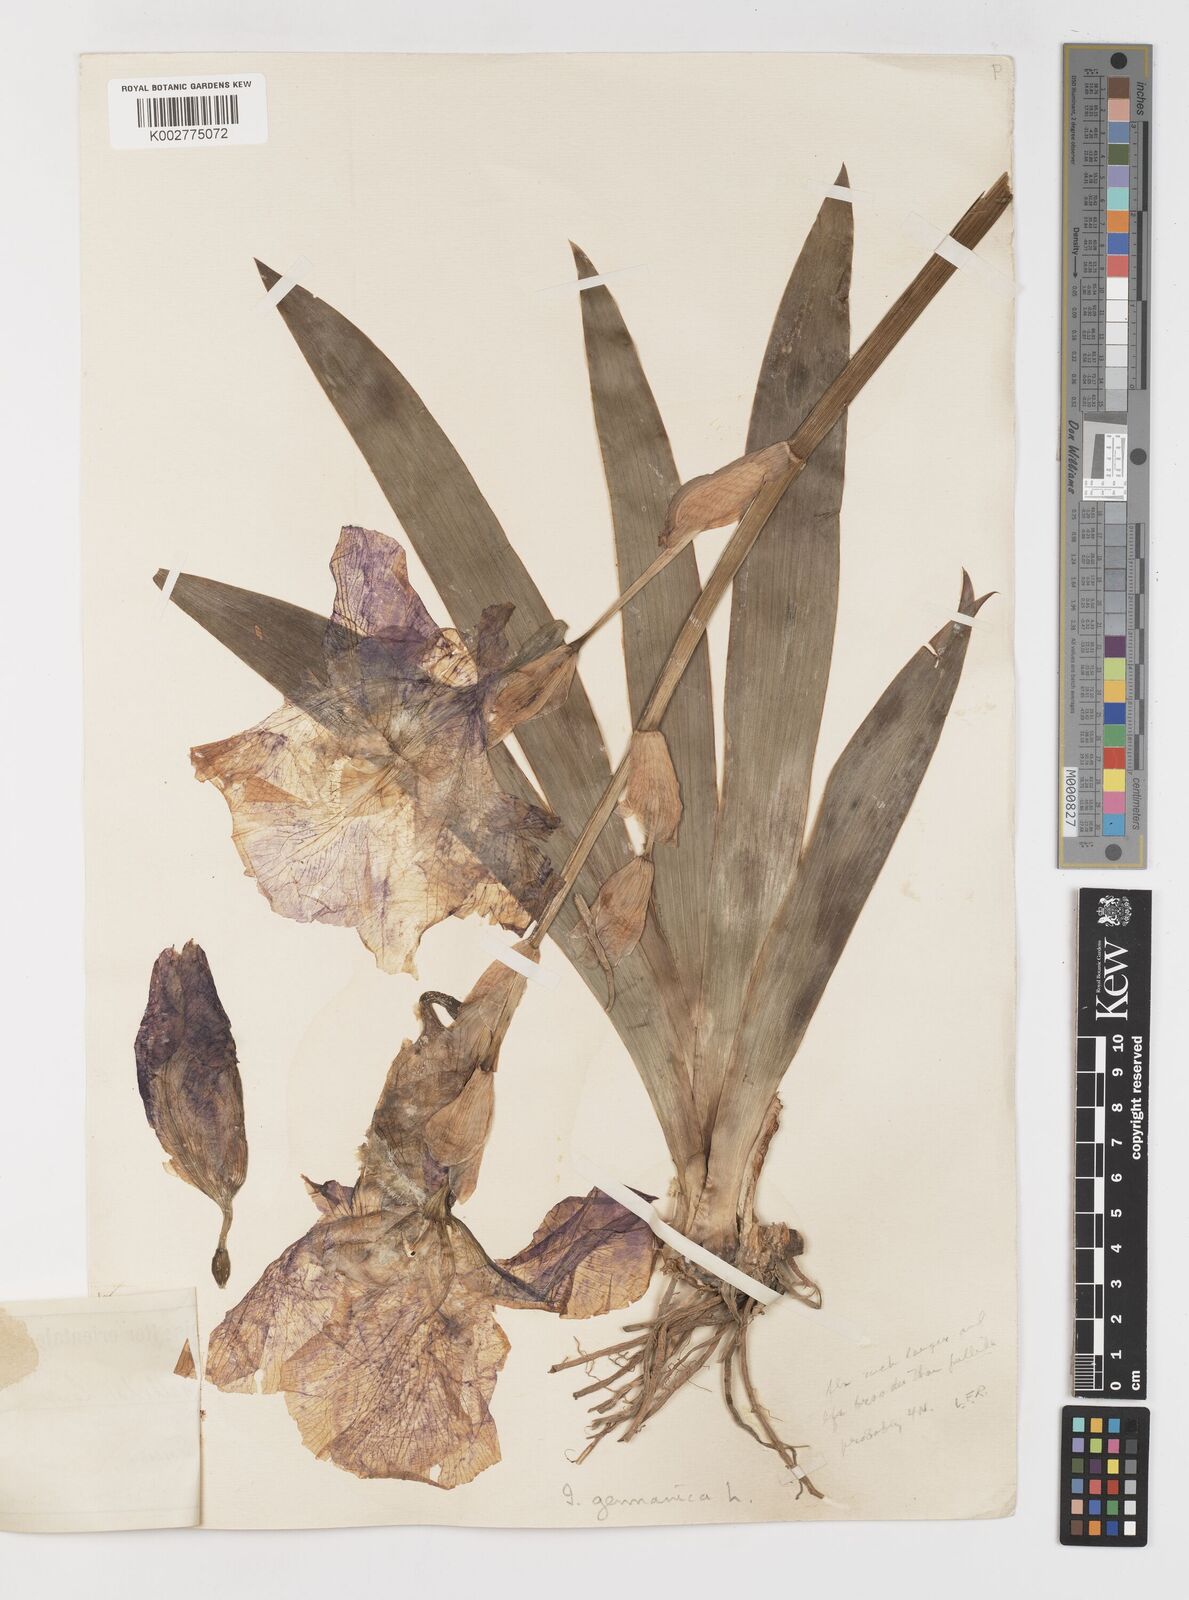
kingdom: Plantae
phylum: Tracheophyta
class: Liliopsida
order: Asparagales
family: Iridaceae
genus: Iris
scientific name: Iris germanica
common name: German iris
